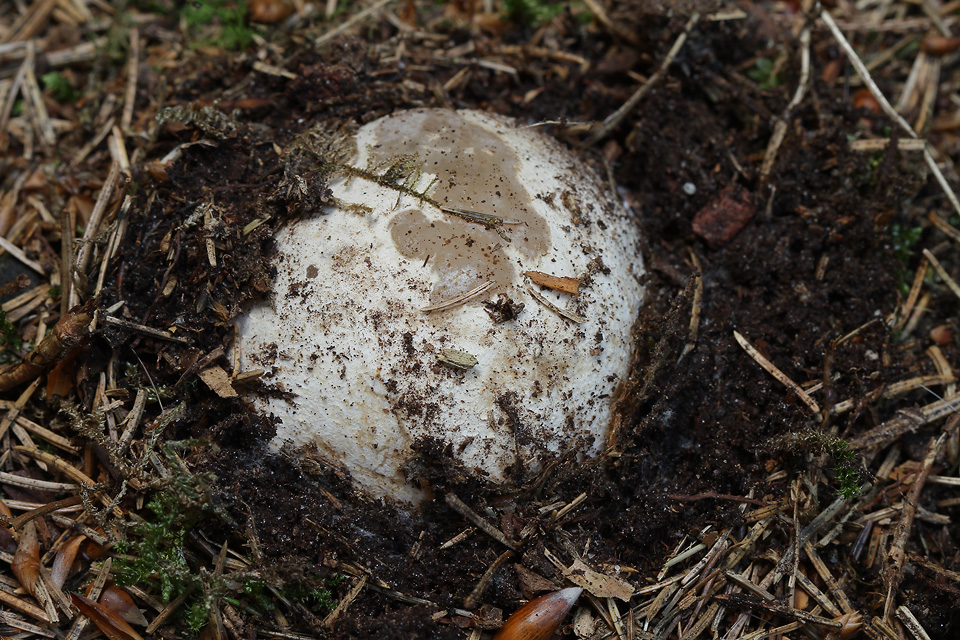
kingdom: Fungi
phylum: Basidiomycota
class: Agaricomycetes
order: Phallales
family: Phallaceae
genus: Phallus
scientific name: Phallus impudicus
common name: almindelig stinksvamp
